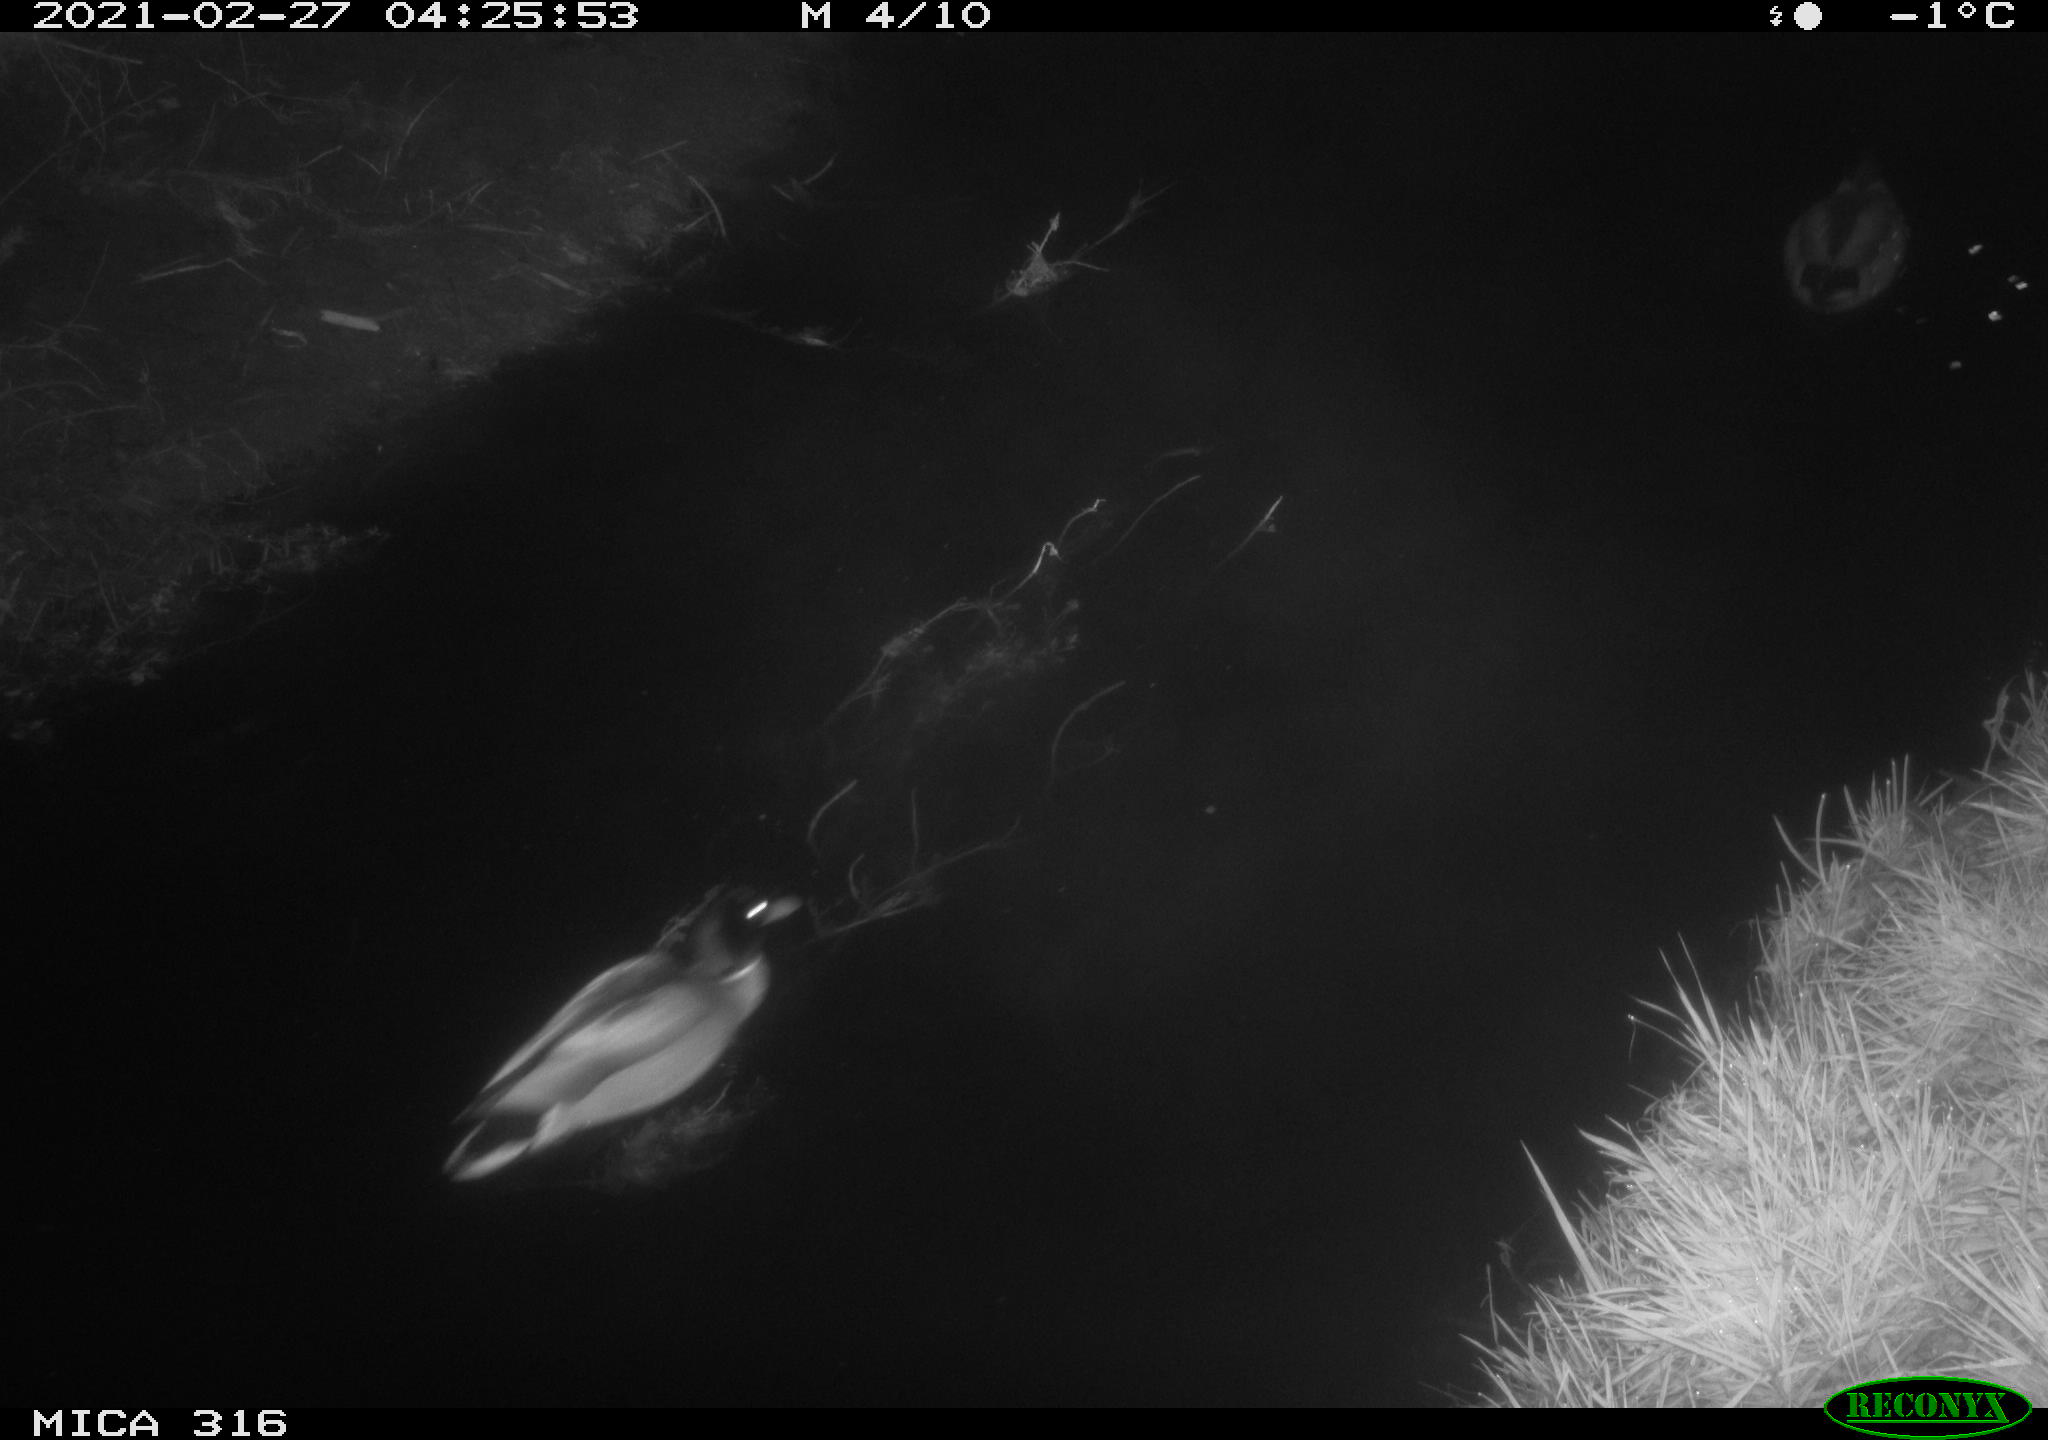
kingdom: Animalia
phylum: Chordata
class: Aves
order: Anseriformes
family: Anatidae
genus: Anas
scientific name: Anas platyrhynchos
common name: Mallard
